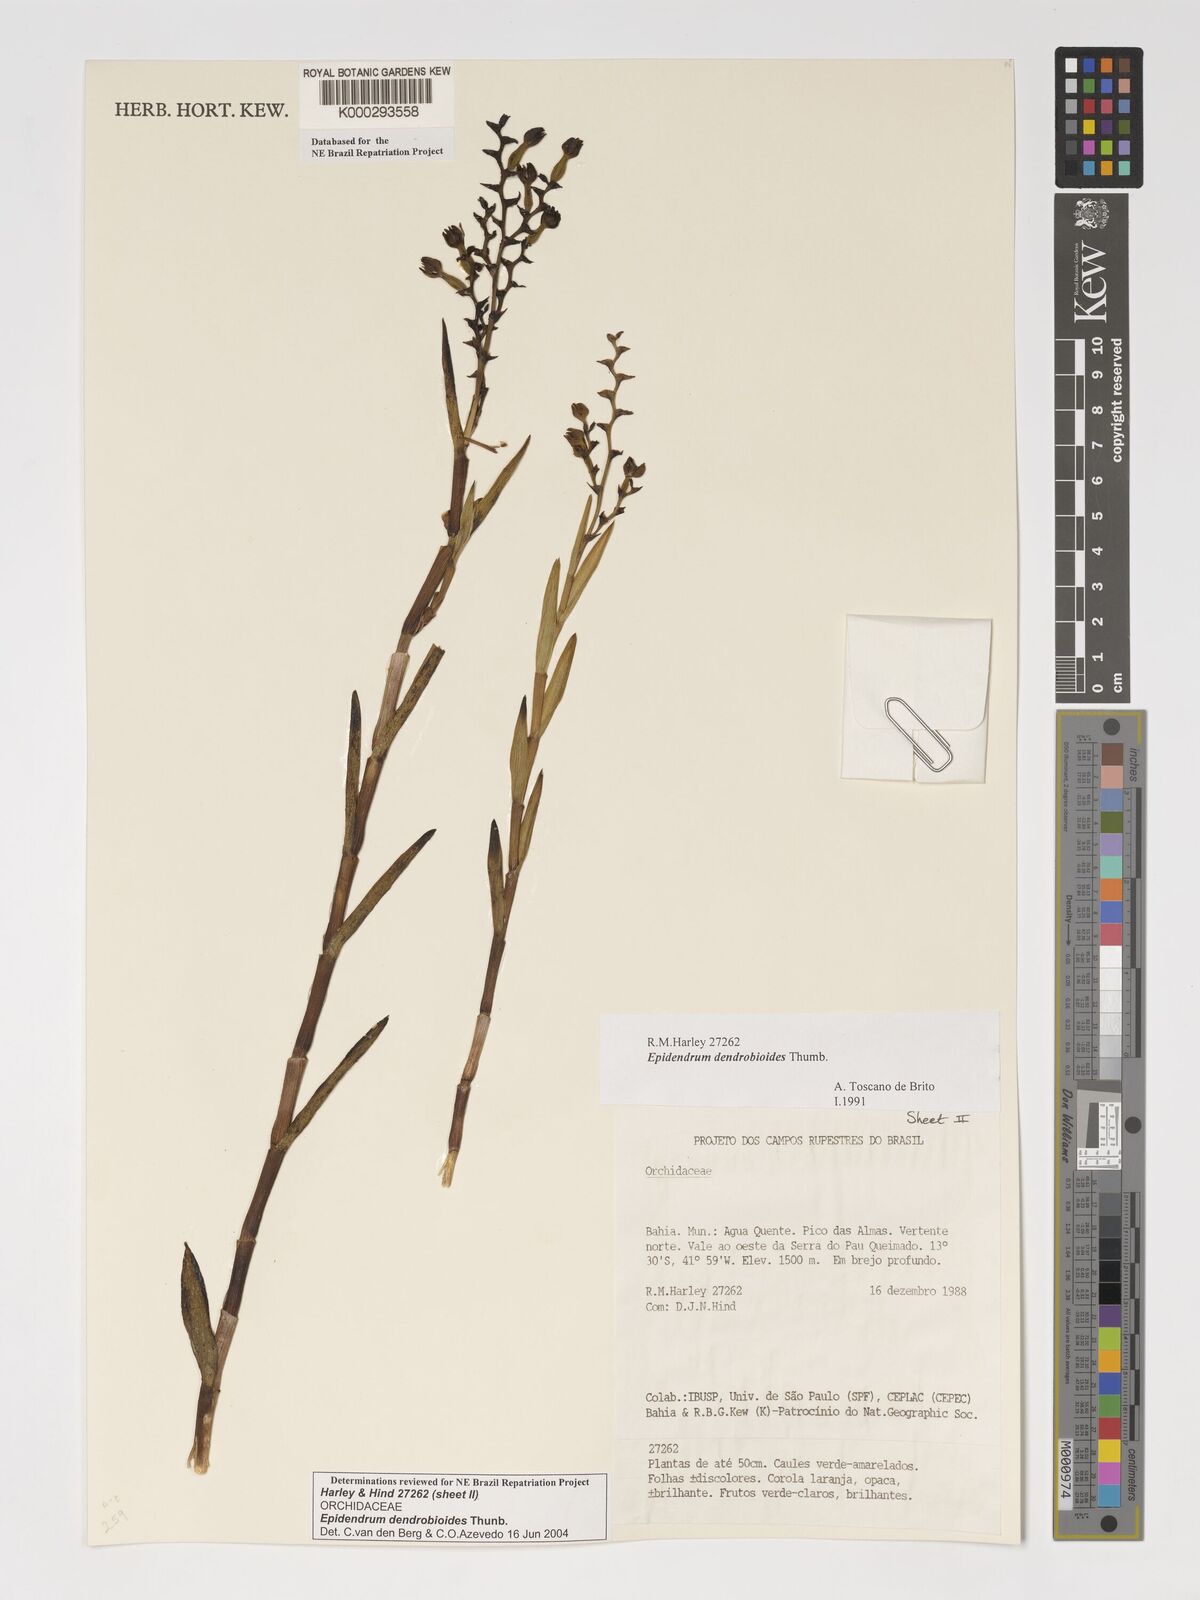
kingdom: Plantae
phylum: Tracheophyta
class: Liliopsida
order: Asparagales
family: Orchidaceae
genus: Epidendrum
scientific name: Epidendrum dendrobioides
